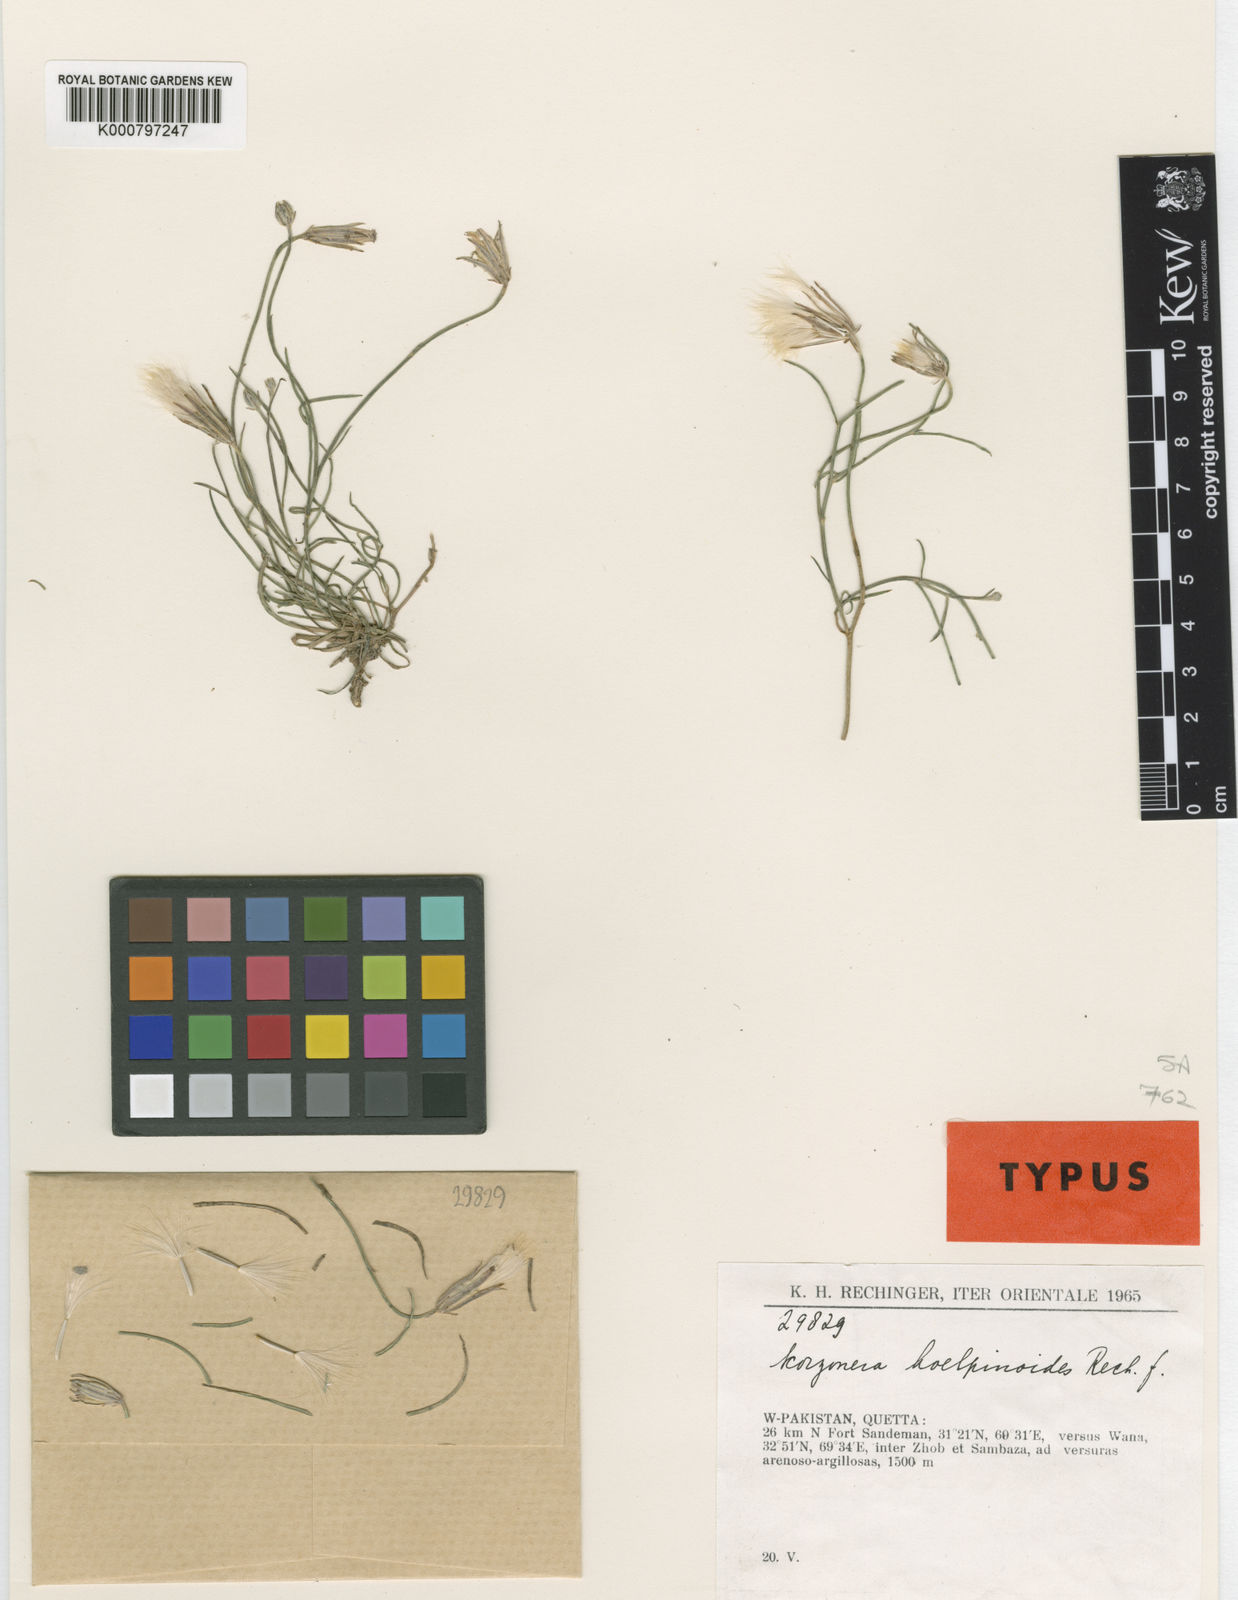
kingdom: Plantae
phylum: Tracheophyta
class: Magnoliopsida
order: Asterales
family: Asteraceae
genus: Ramaliella
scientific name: Ramaliella koelpinioides
